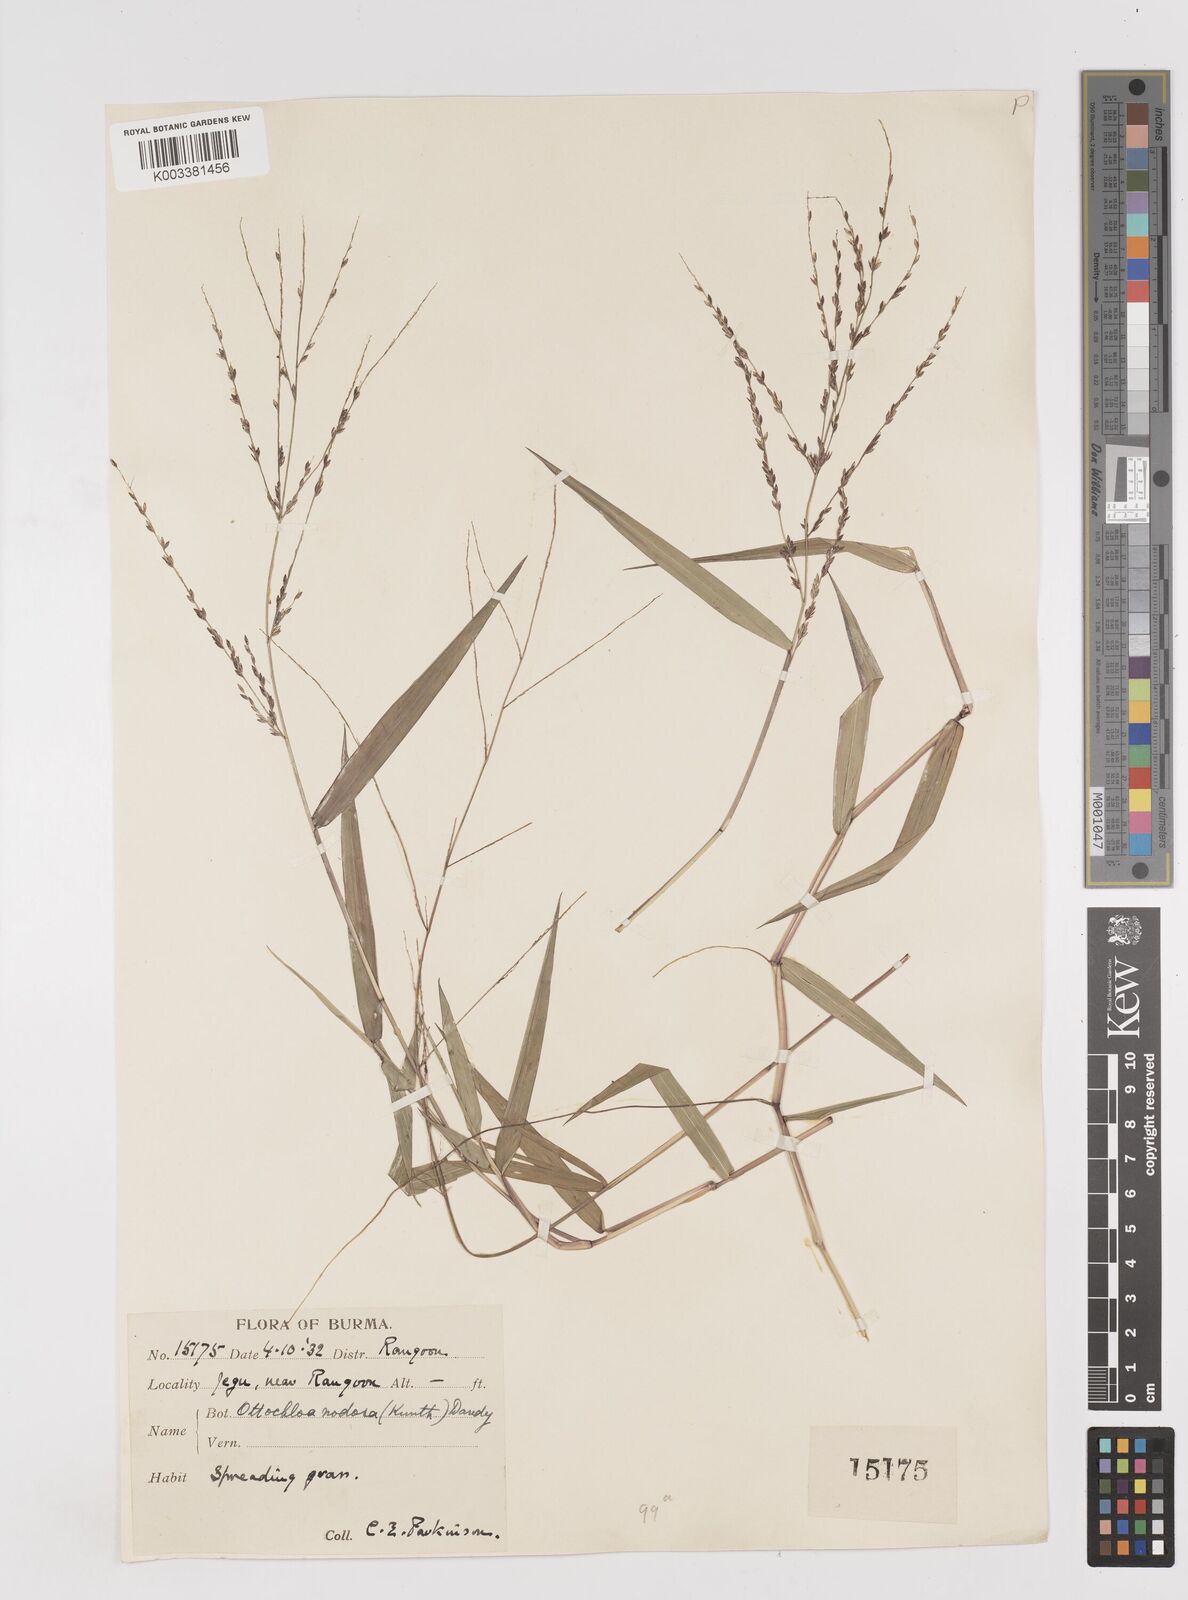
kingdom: Plantae
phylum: Tracheophyta
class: Liliopsida
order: Poales
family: Poaceae
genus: Ottochloa
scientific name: Ottochloa nodosa
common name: Slender-panic grass
